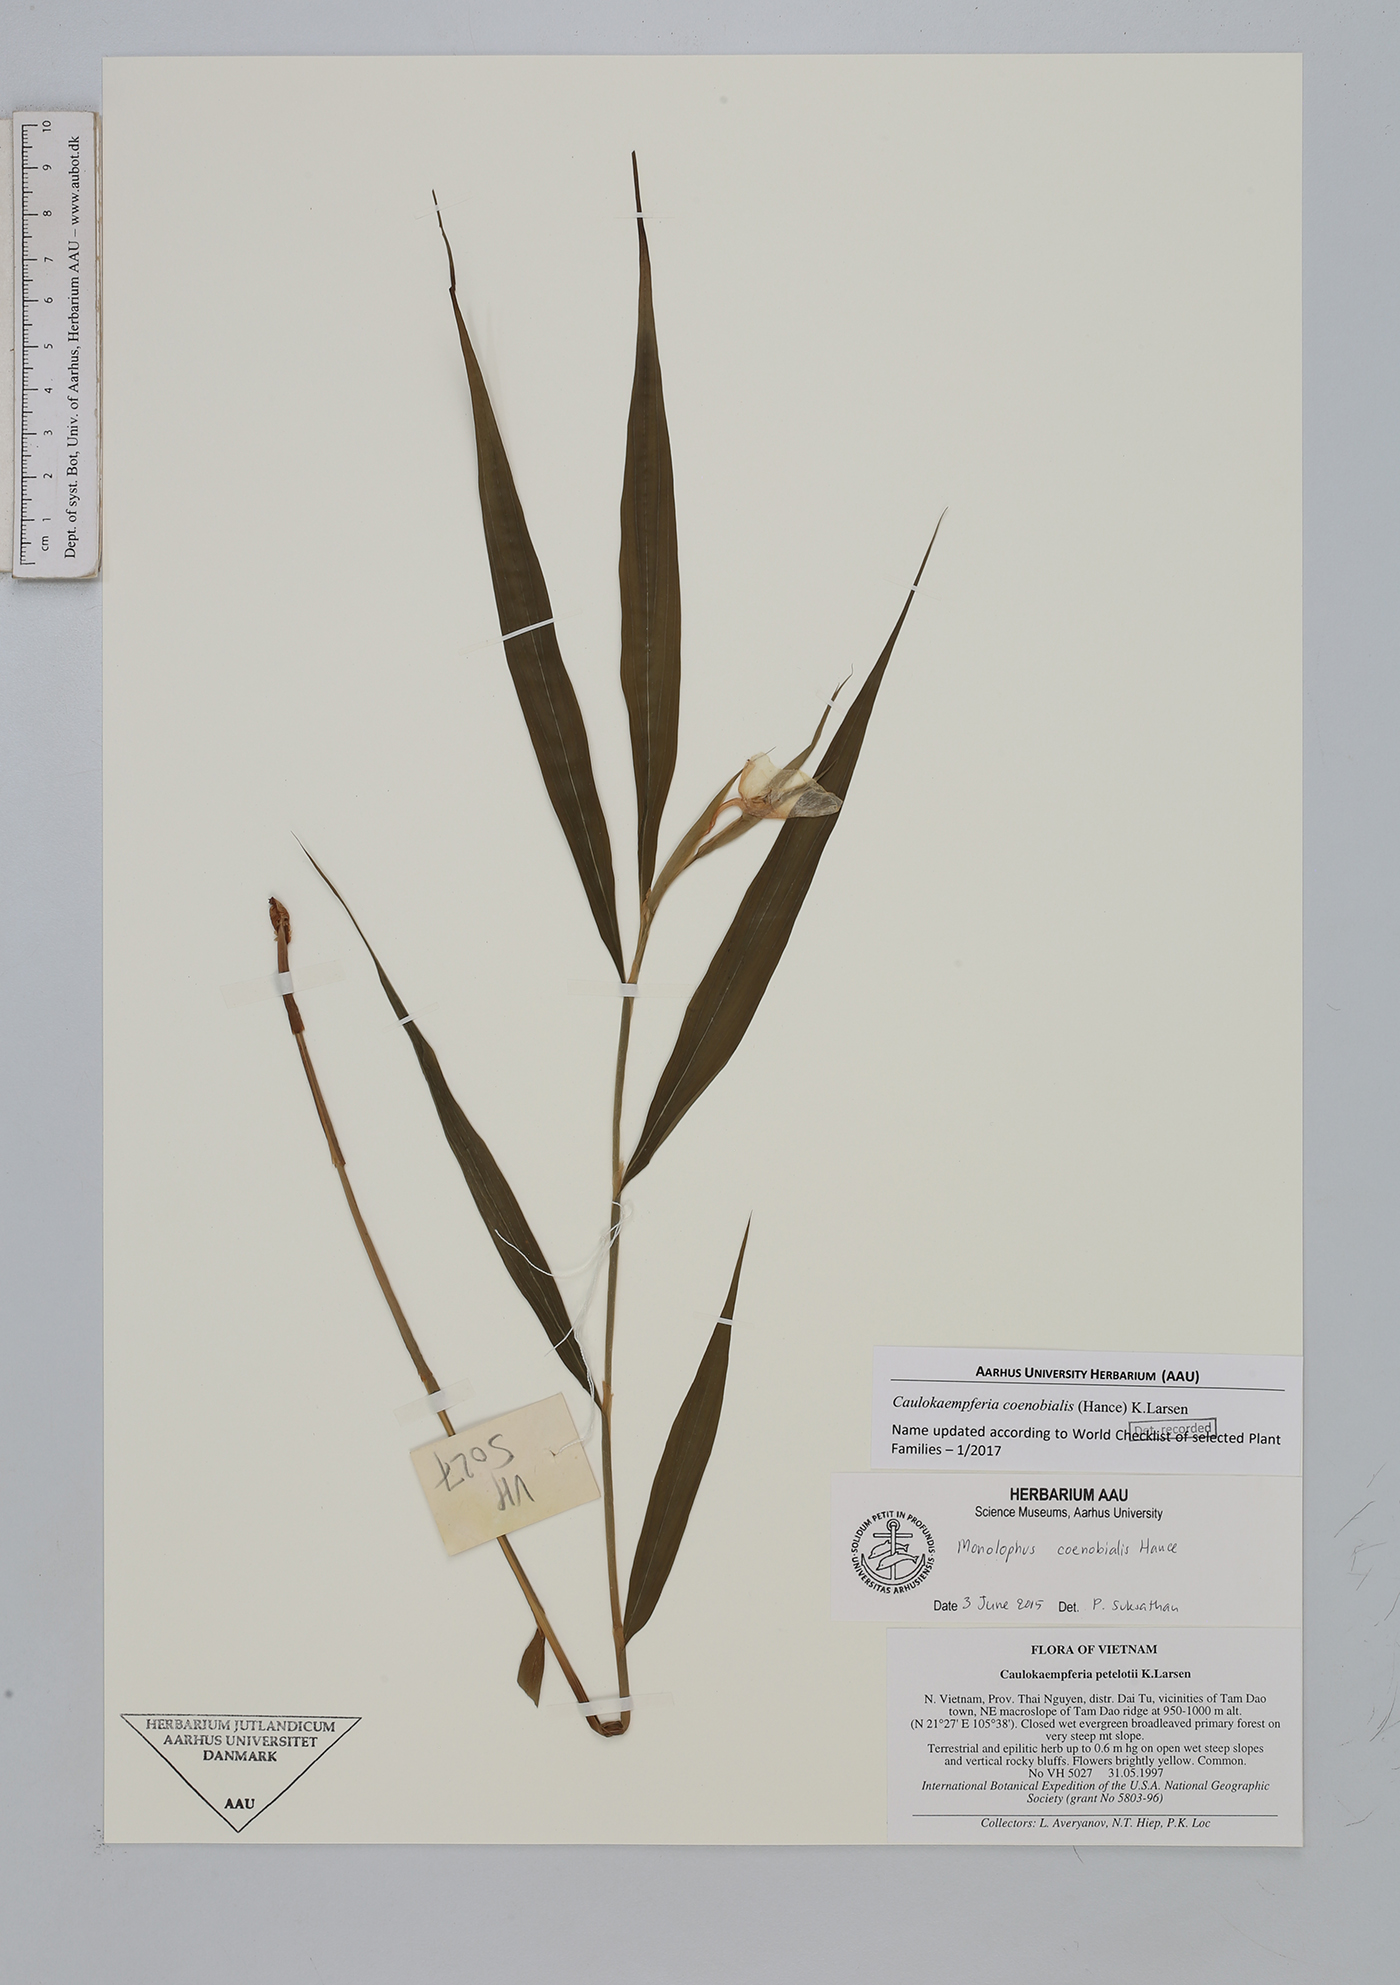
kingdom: Plantae
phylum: Tracheophyta
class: Liliopsida
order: Zingiberales
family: Zingiberaceae
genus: Caulokaempferia
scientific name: Caulokaempferia coenobialis
